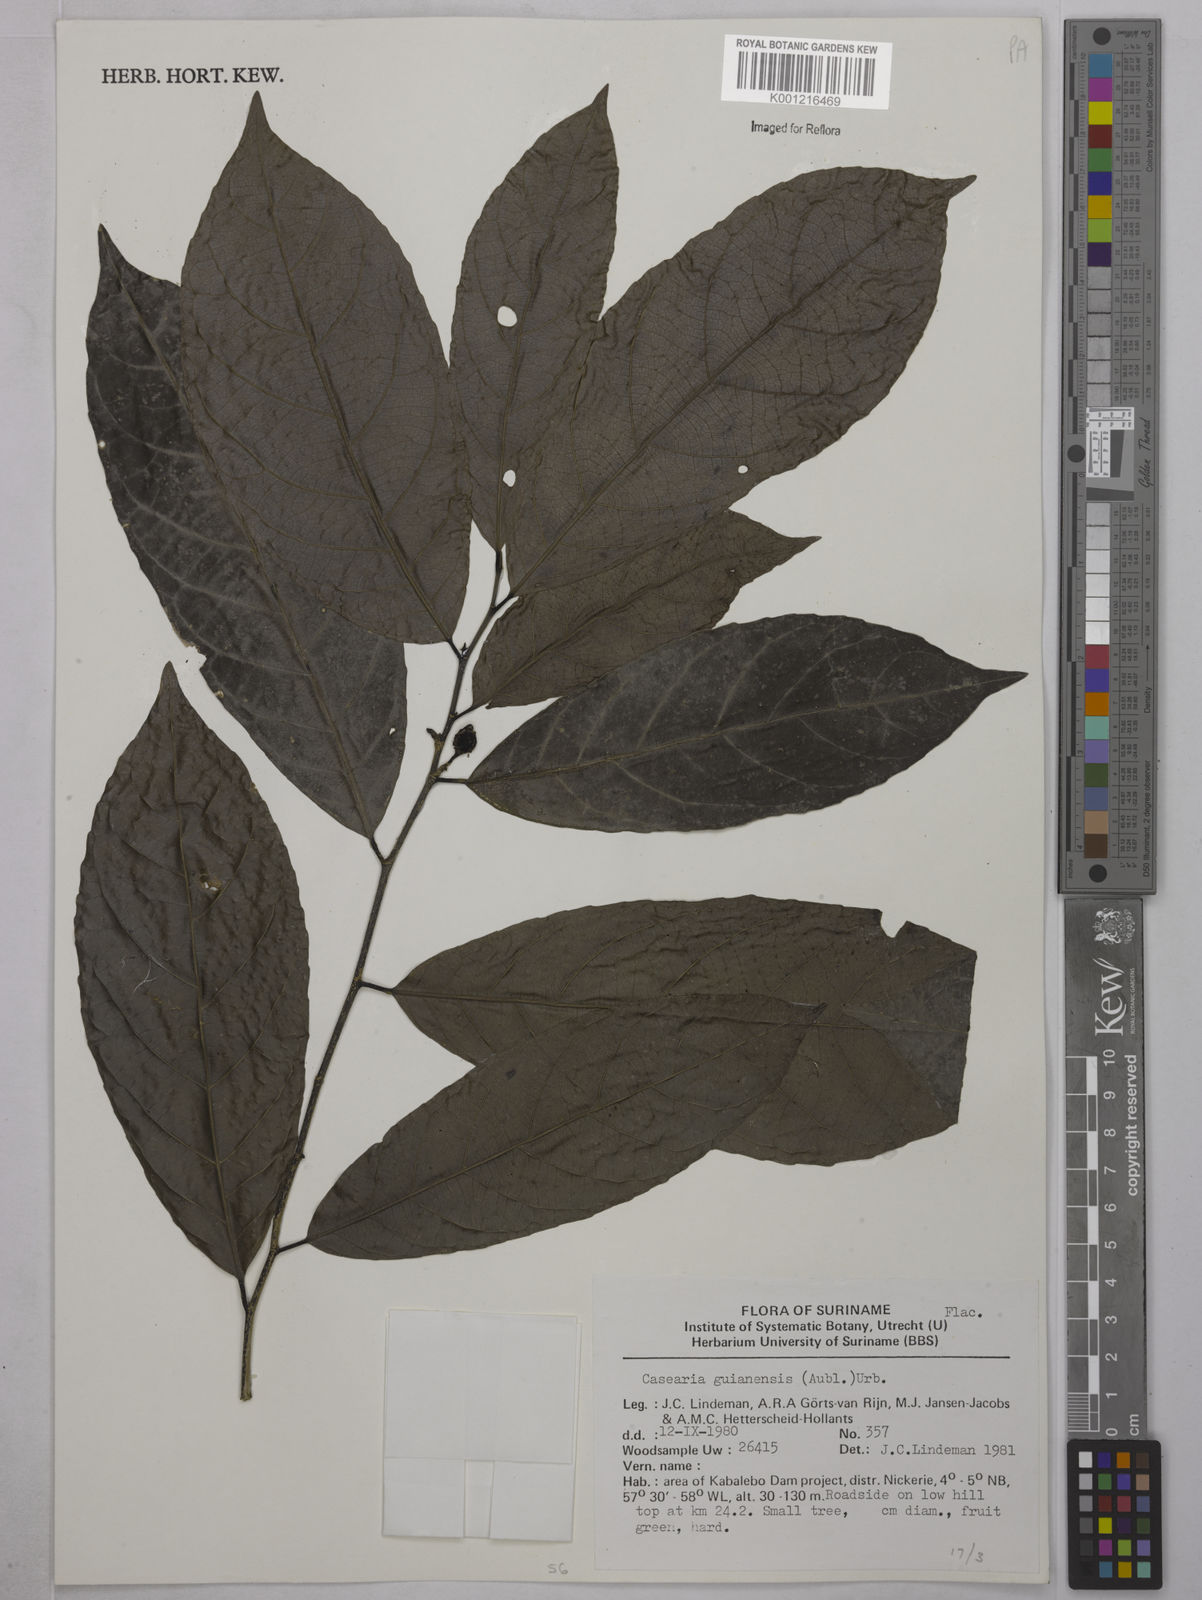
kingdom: Plantae
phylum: Tracheophyta
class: Magnoliopsida
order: Malpighiales
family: Salicaceae
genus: Casearia
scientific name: Casearia guianensis
